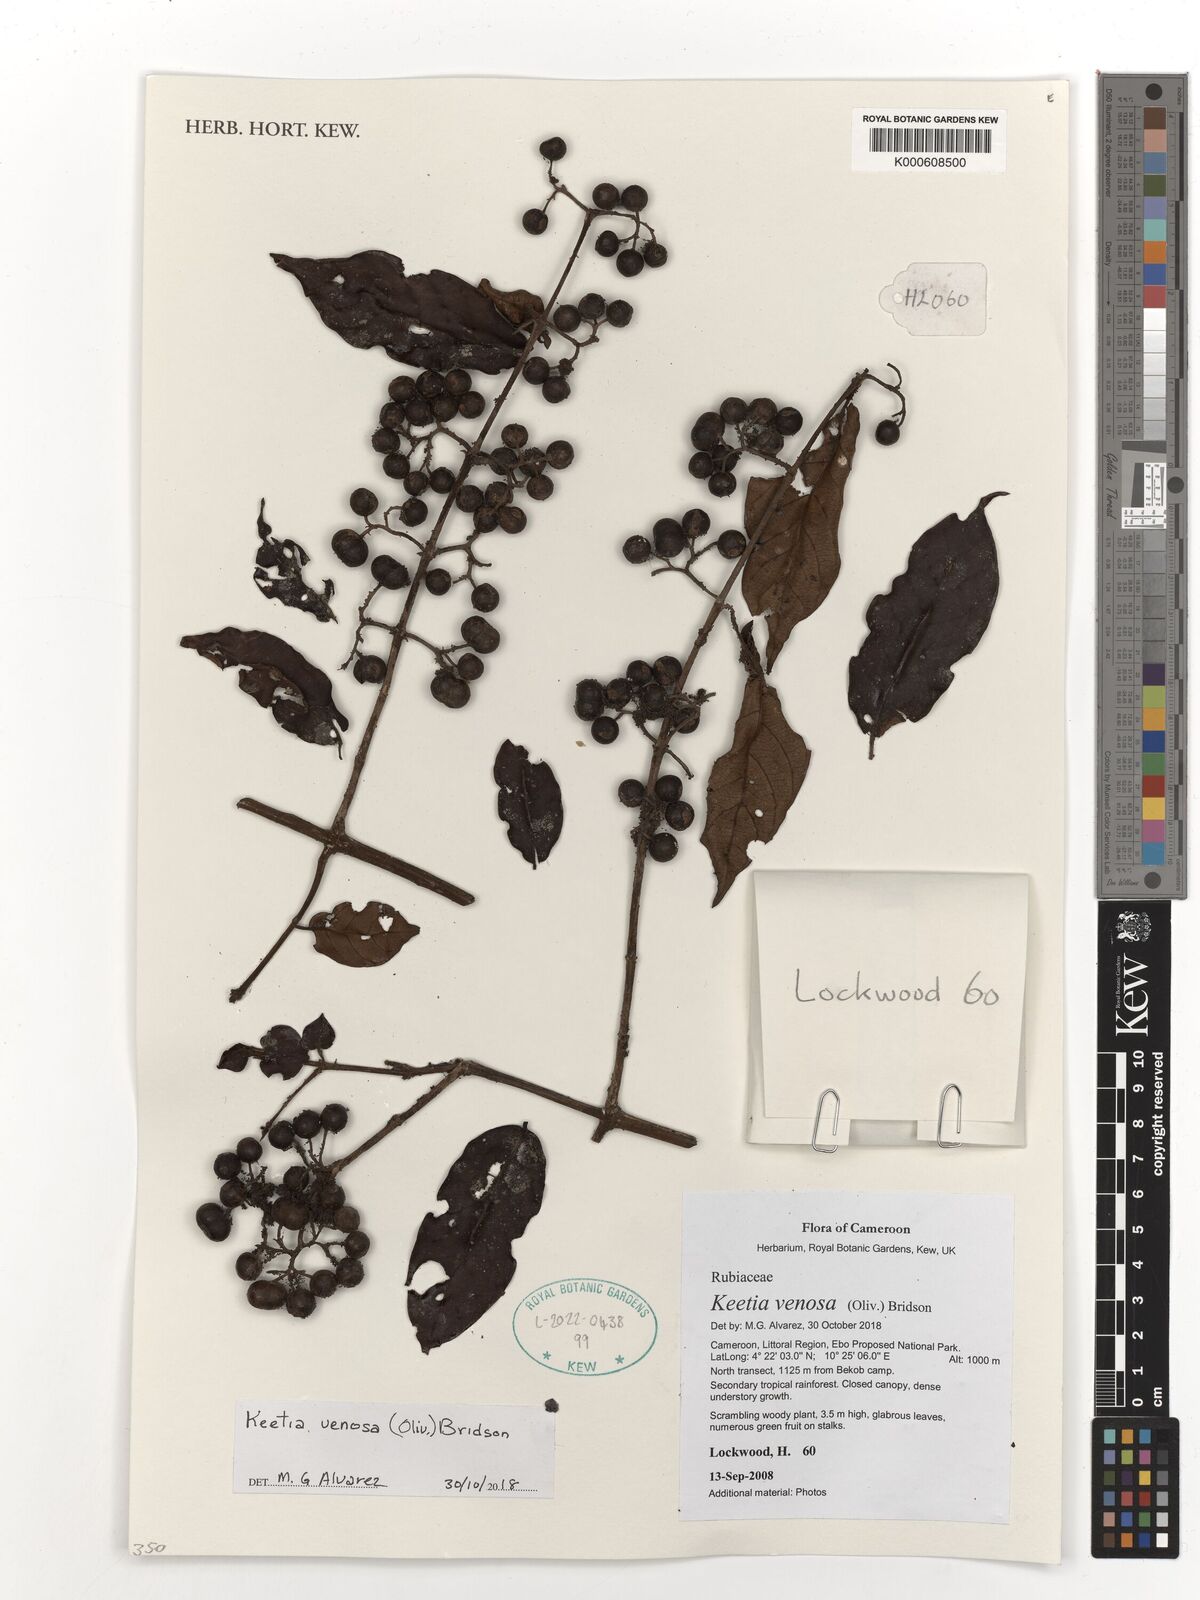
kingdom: Plantae
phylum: Tracheophyta
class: Magnoliopsida
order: Gentianales
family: Rubiaceae
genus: Keetia
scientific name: Keetia venosa
